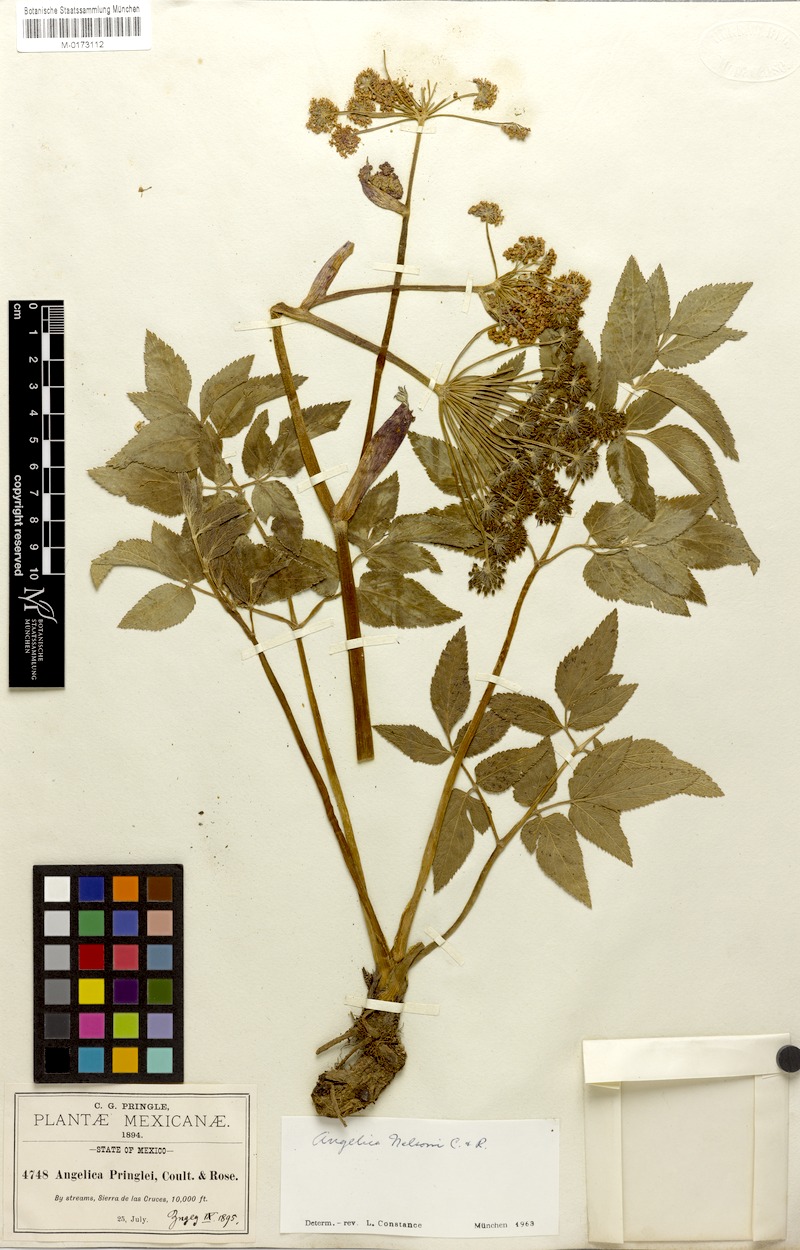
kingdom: Plantae
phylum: Tracheophyta
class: Magnoliopsida
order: Apiales
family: Apiaceae
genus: Angelica
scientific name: Angelica nelsonii
